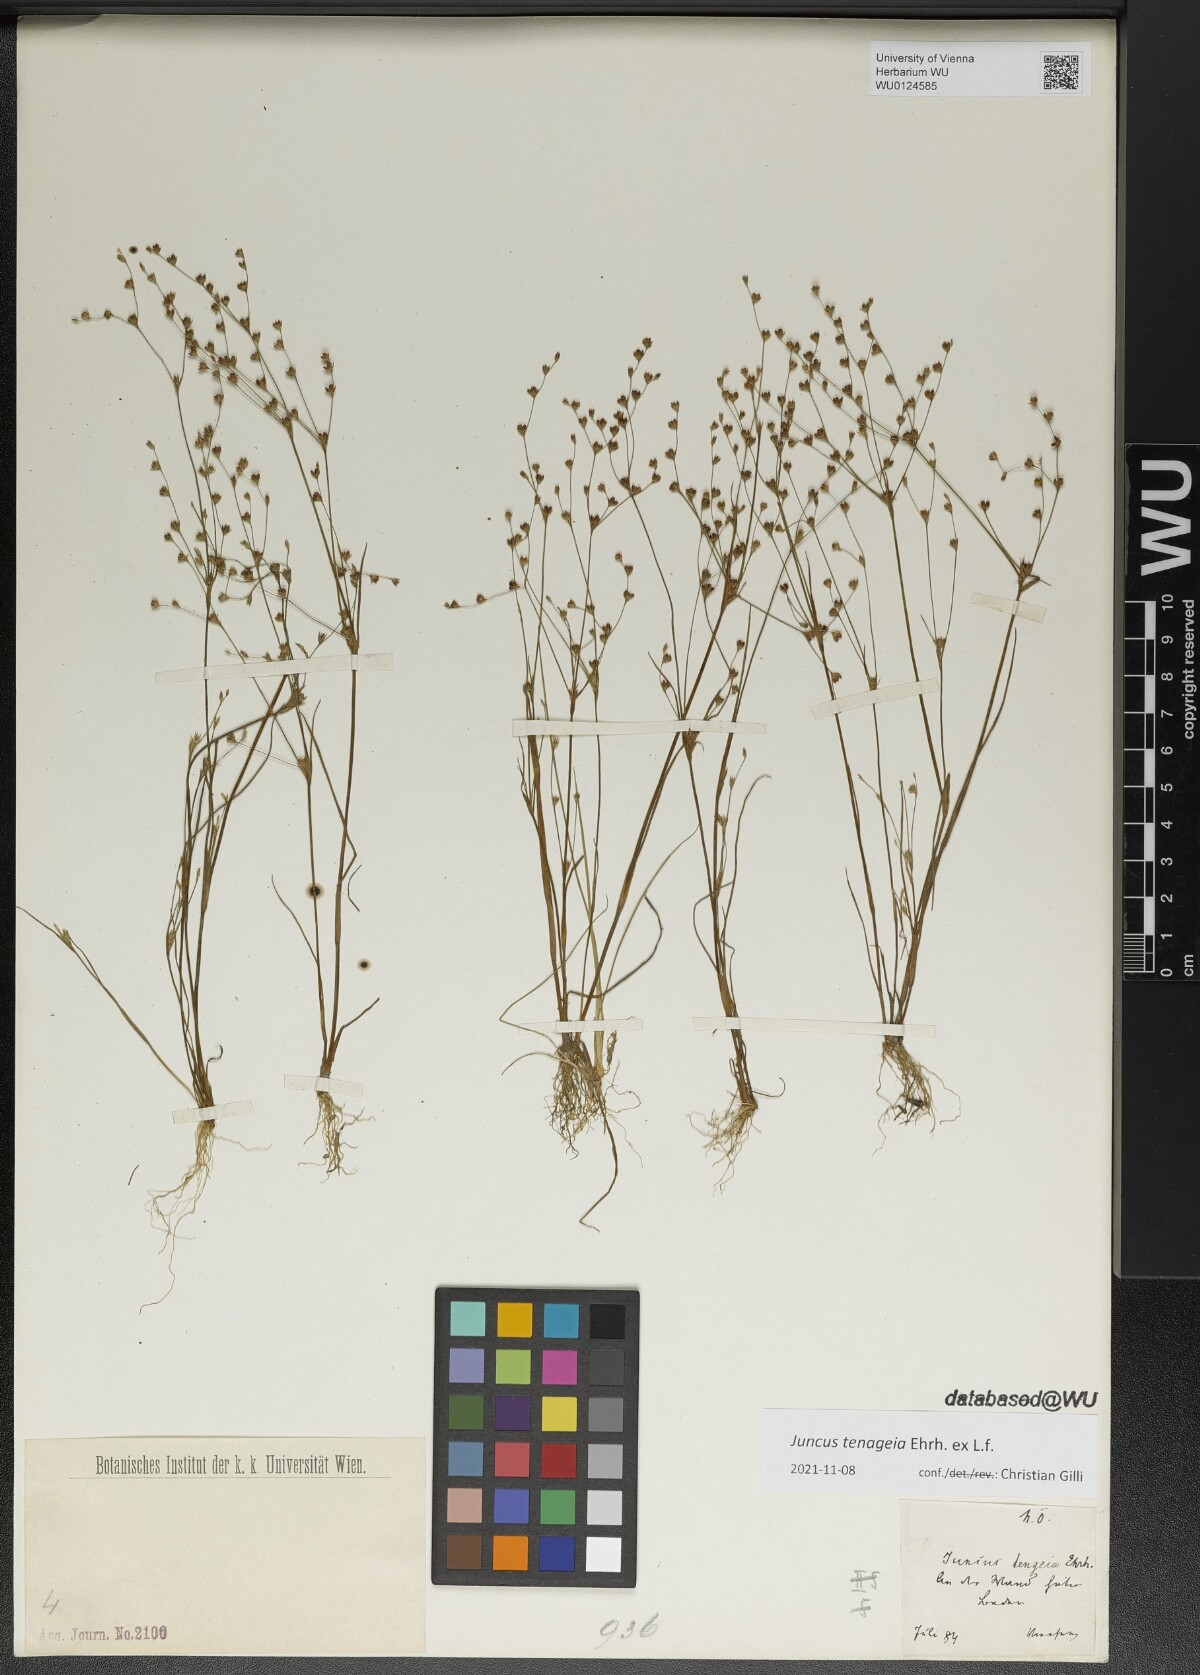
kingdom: Plantae
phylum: Tracheophyta
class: Liliopsida
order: Poales
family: Juncaceae
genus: Juncus
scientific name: Juncus tenageia
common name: Sand rush
